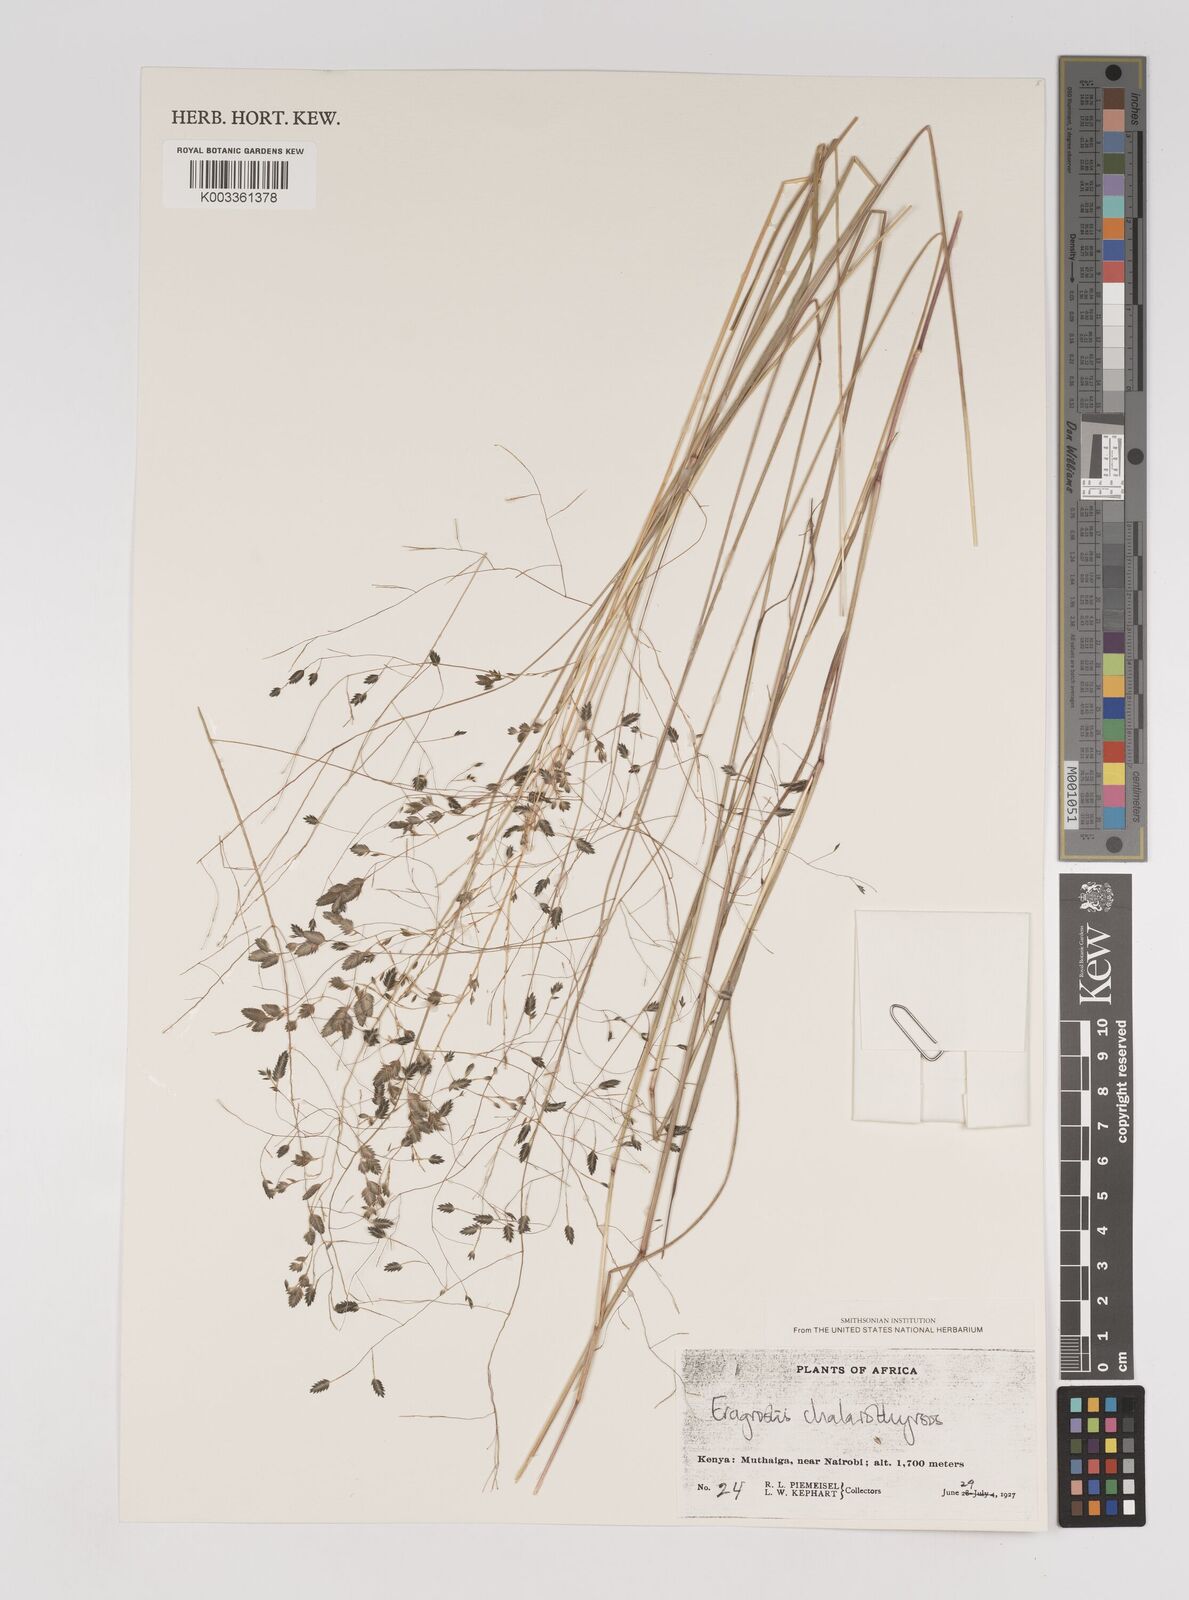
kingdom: Plantae
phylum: Tracheophyta
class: Liliopsida
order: Poales
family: Poaceae
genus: Eragrostis
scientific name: Eragrostis chalarothyrsos
